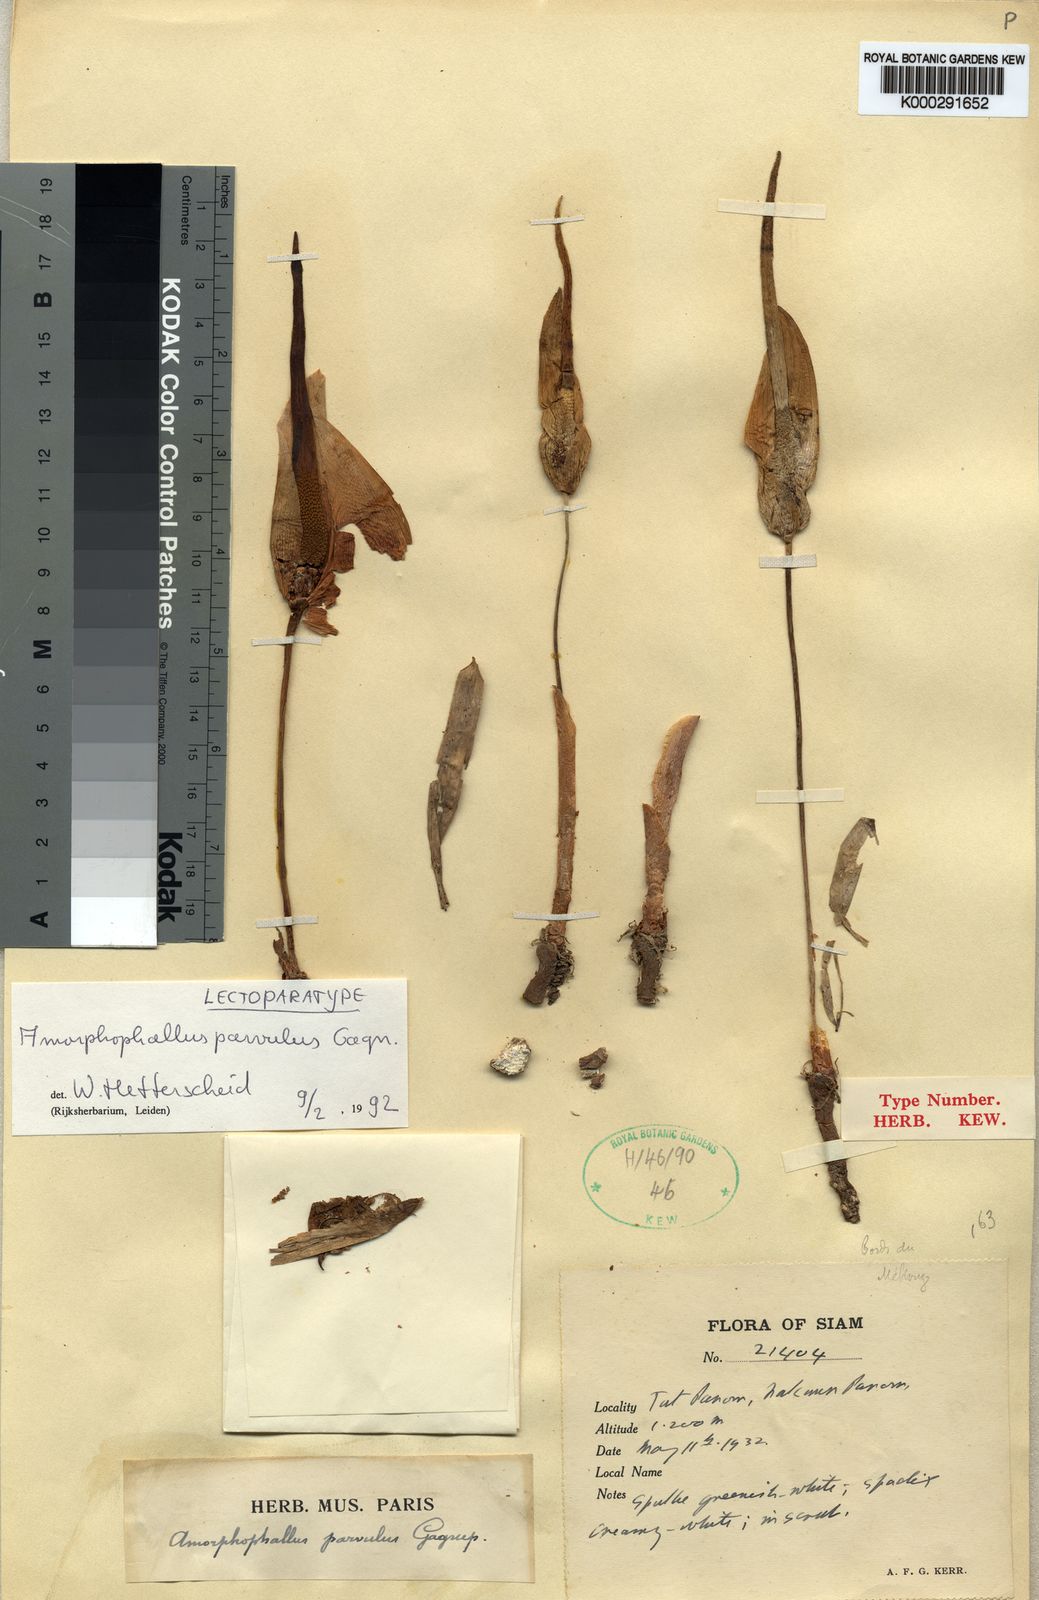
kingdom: Plantae
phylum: Tracheophyta
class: Liliopsida
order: Alismatales
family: Araceae
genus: Amorphophallus
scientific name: Amorphophallus harmandii
